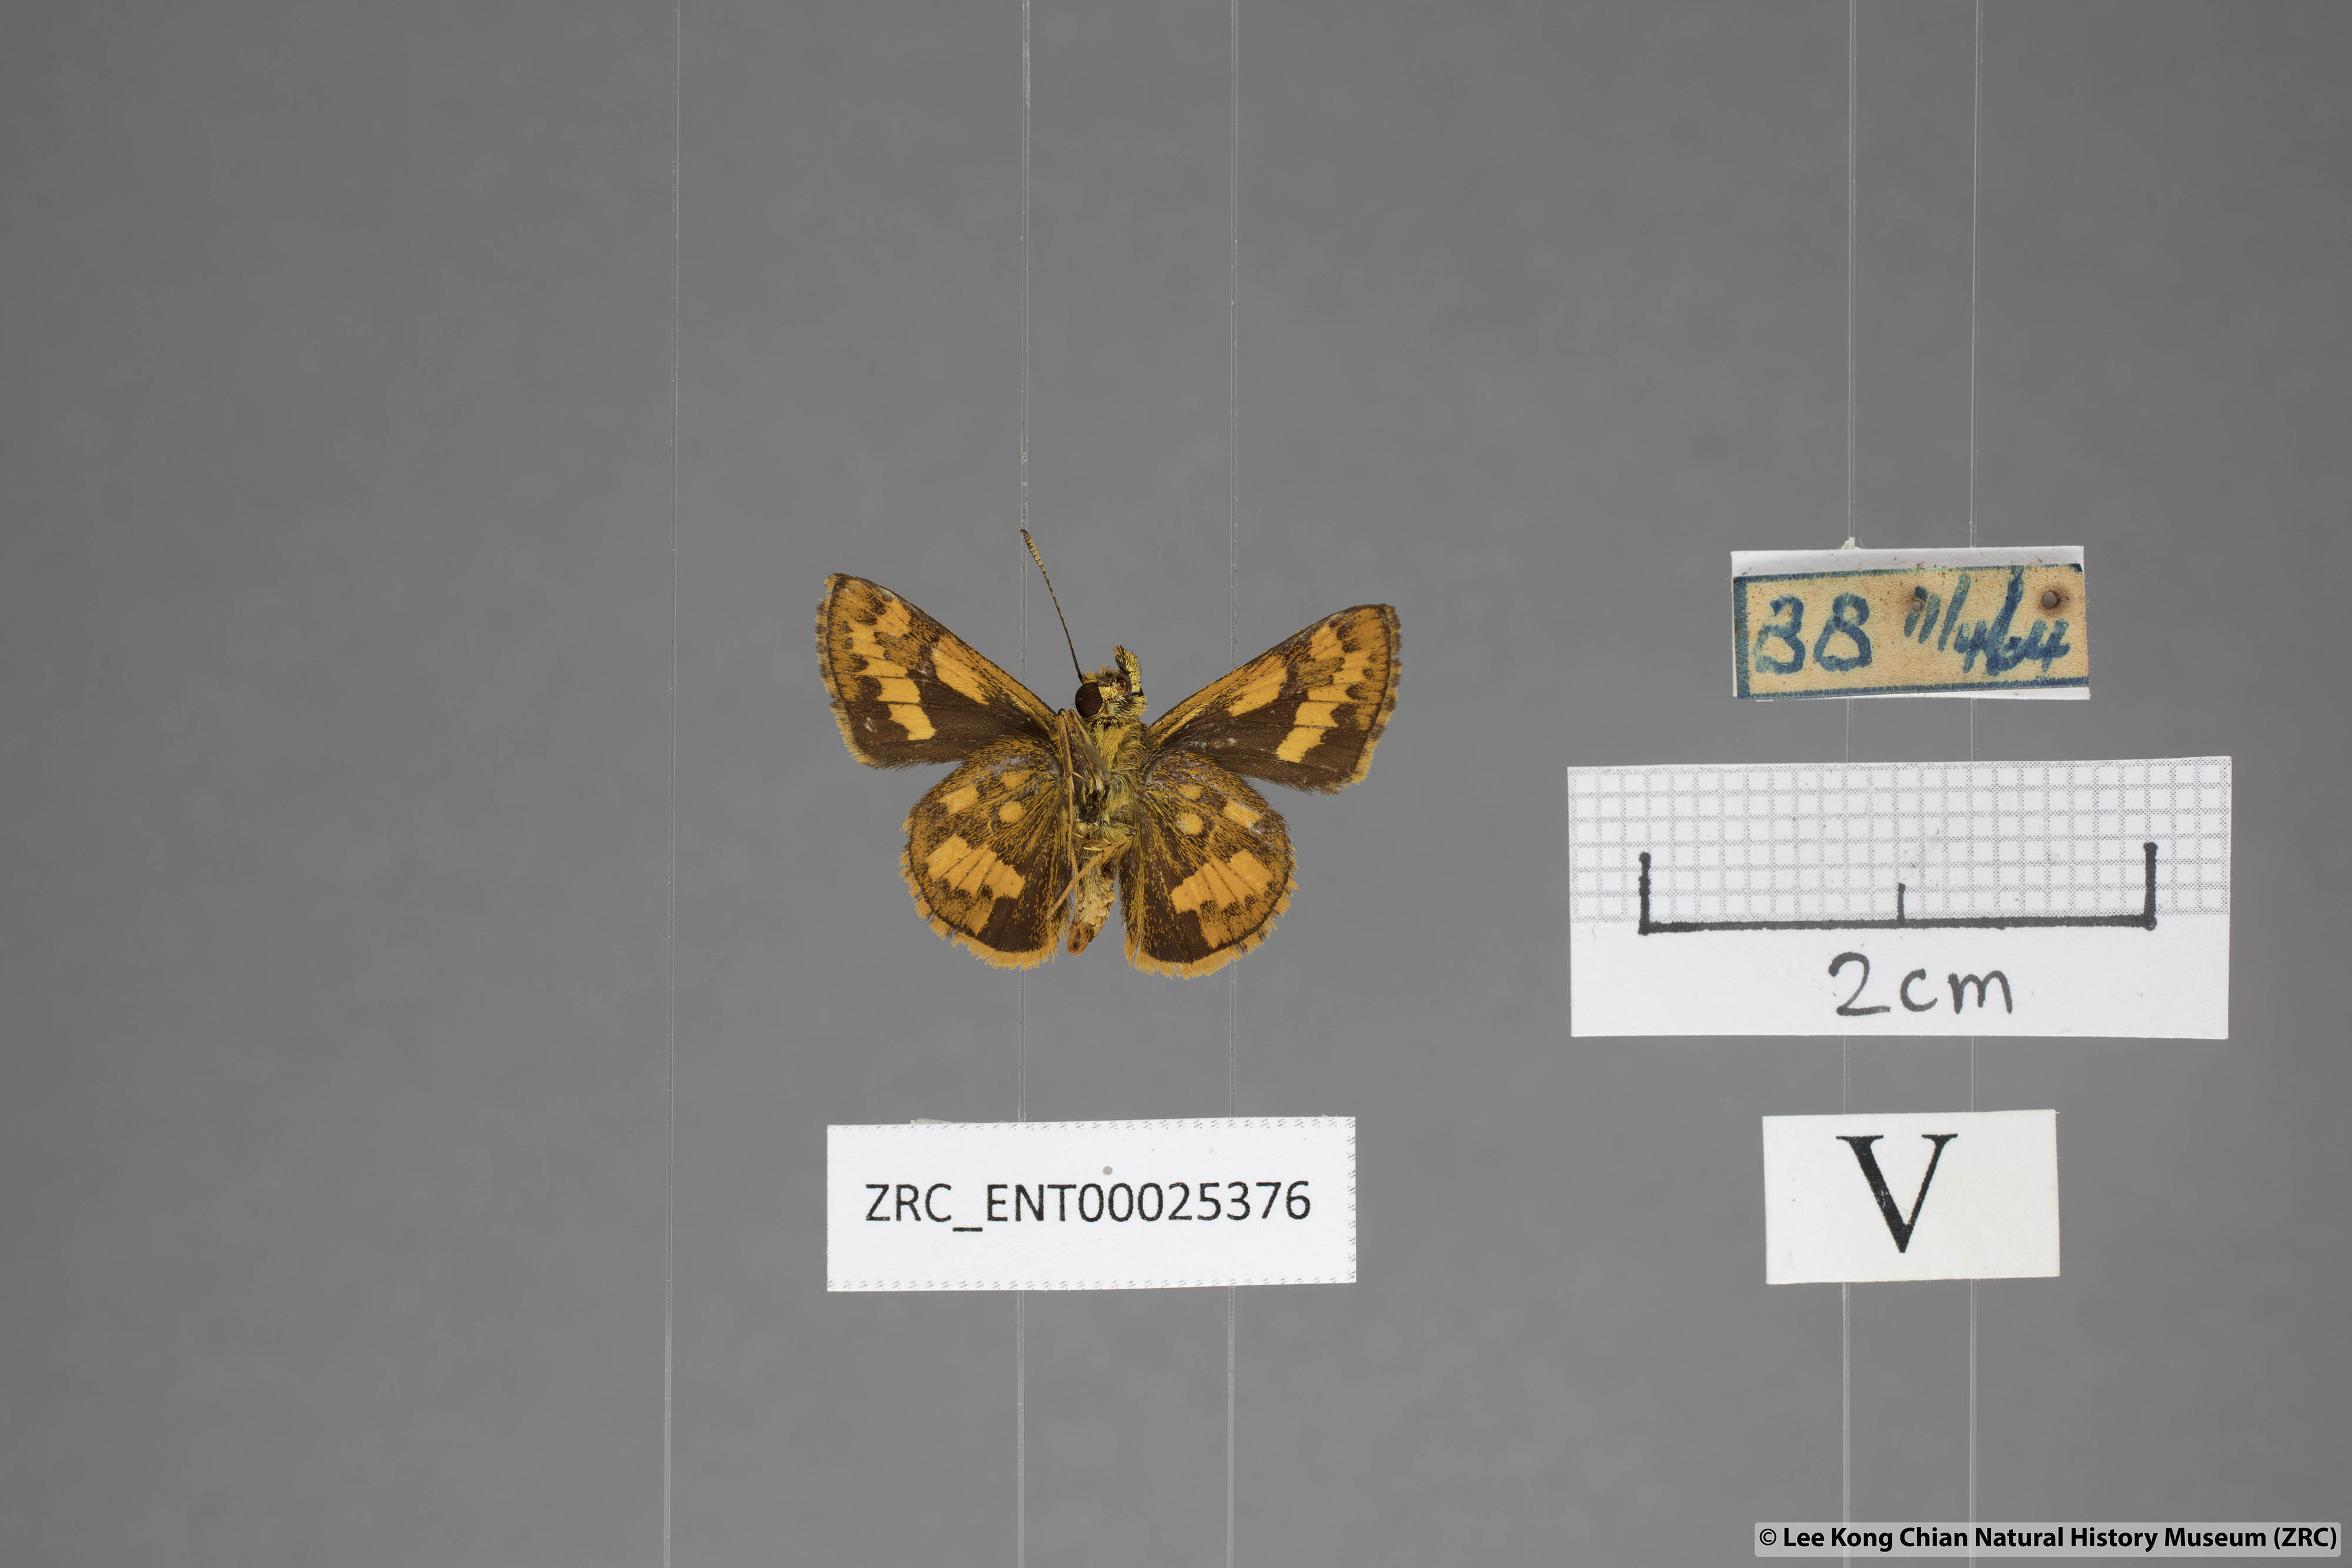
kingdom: Animalia
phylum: Arthropoda
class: Insecta
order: Lepidoptera
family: Hesperiidae
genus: Potanthus
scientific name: Potanthus ganda
